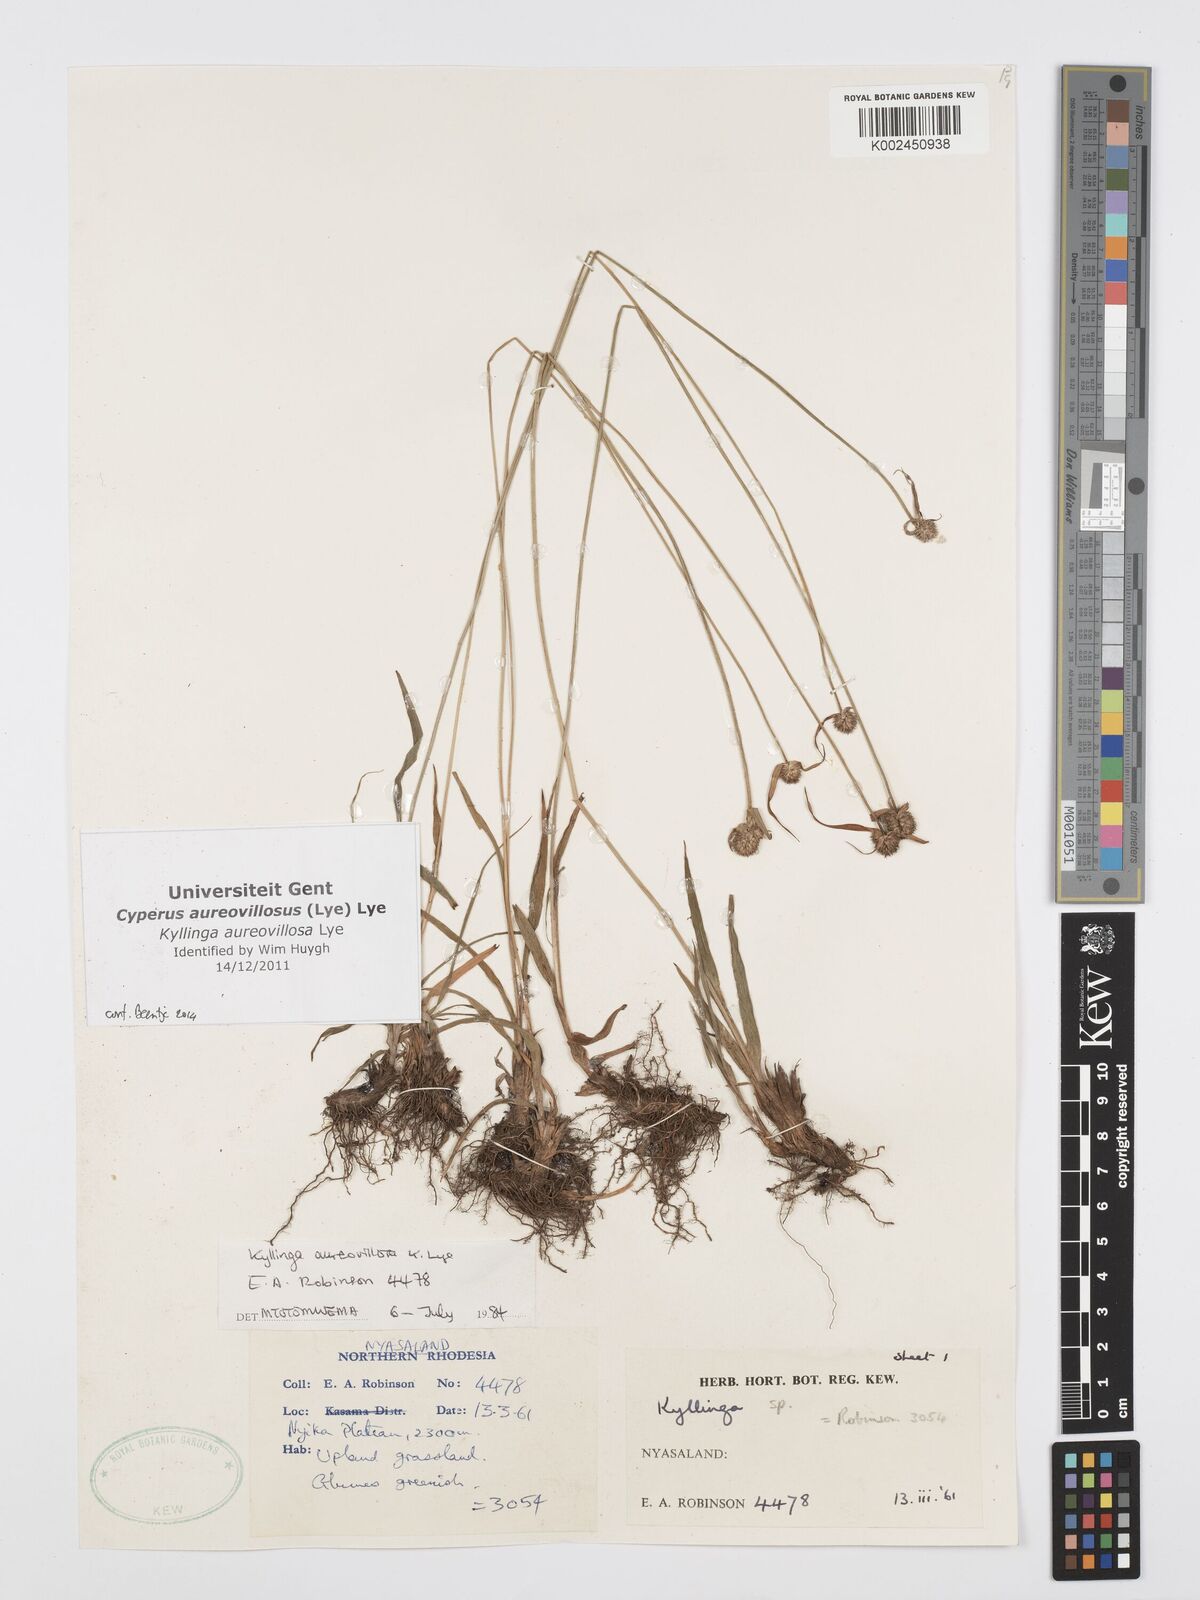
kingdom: Plantae
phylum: Tracheophyta
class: Liliopsida
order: Poales
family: Cyperaceae
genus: Cyperus
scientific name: Cyperus aureovillosus
